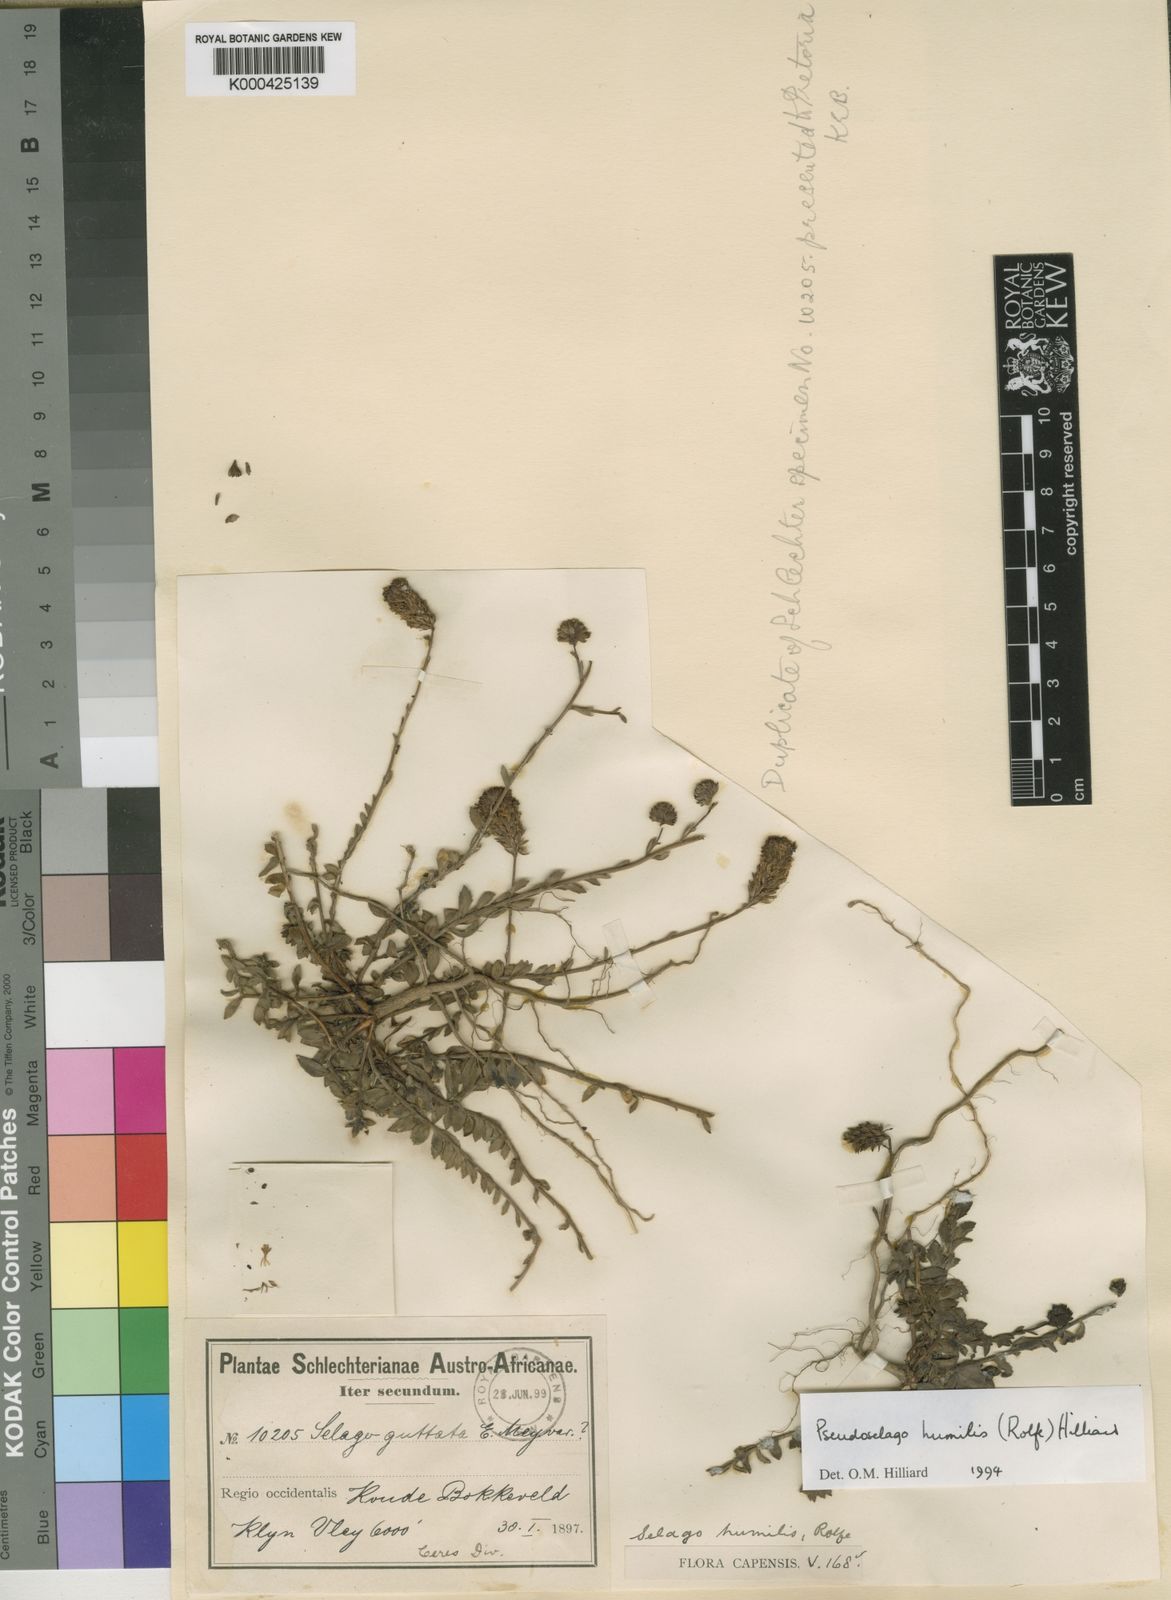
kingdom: Plantae
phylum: Tracheophyta
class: Magnoliopsida
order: Lamiales
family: Scrophulariaceae
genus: Pseudoselago
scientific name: Pseudoselago humilis
